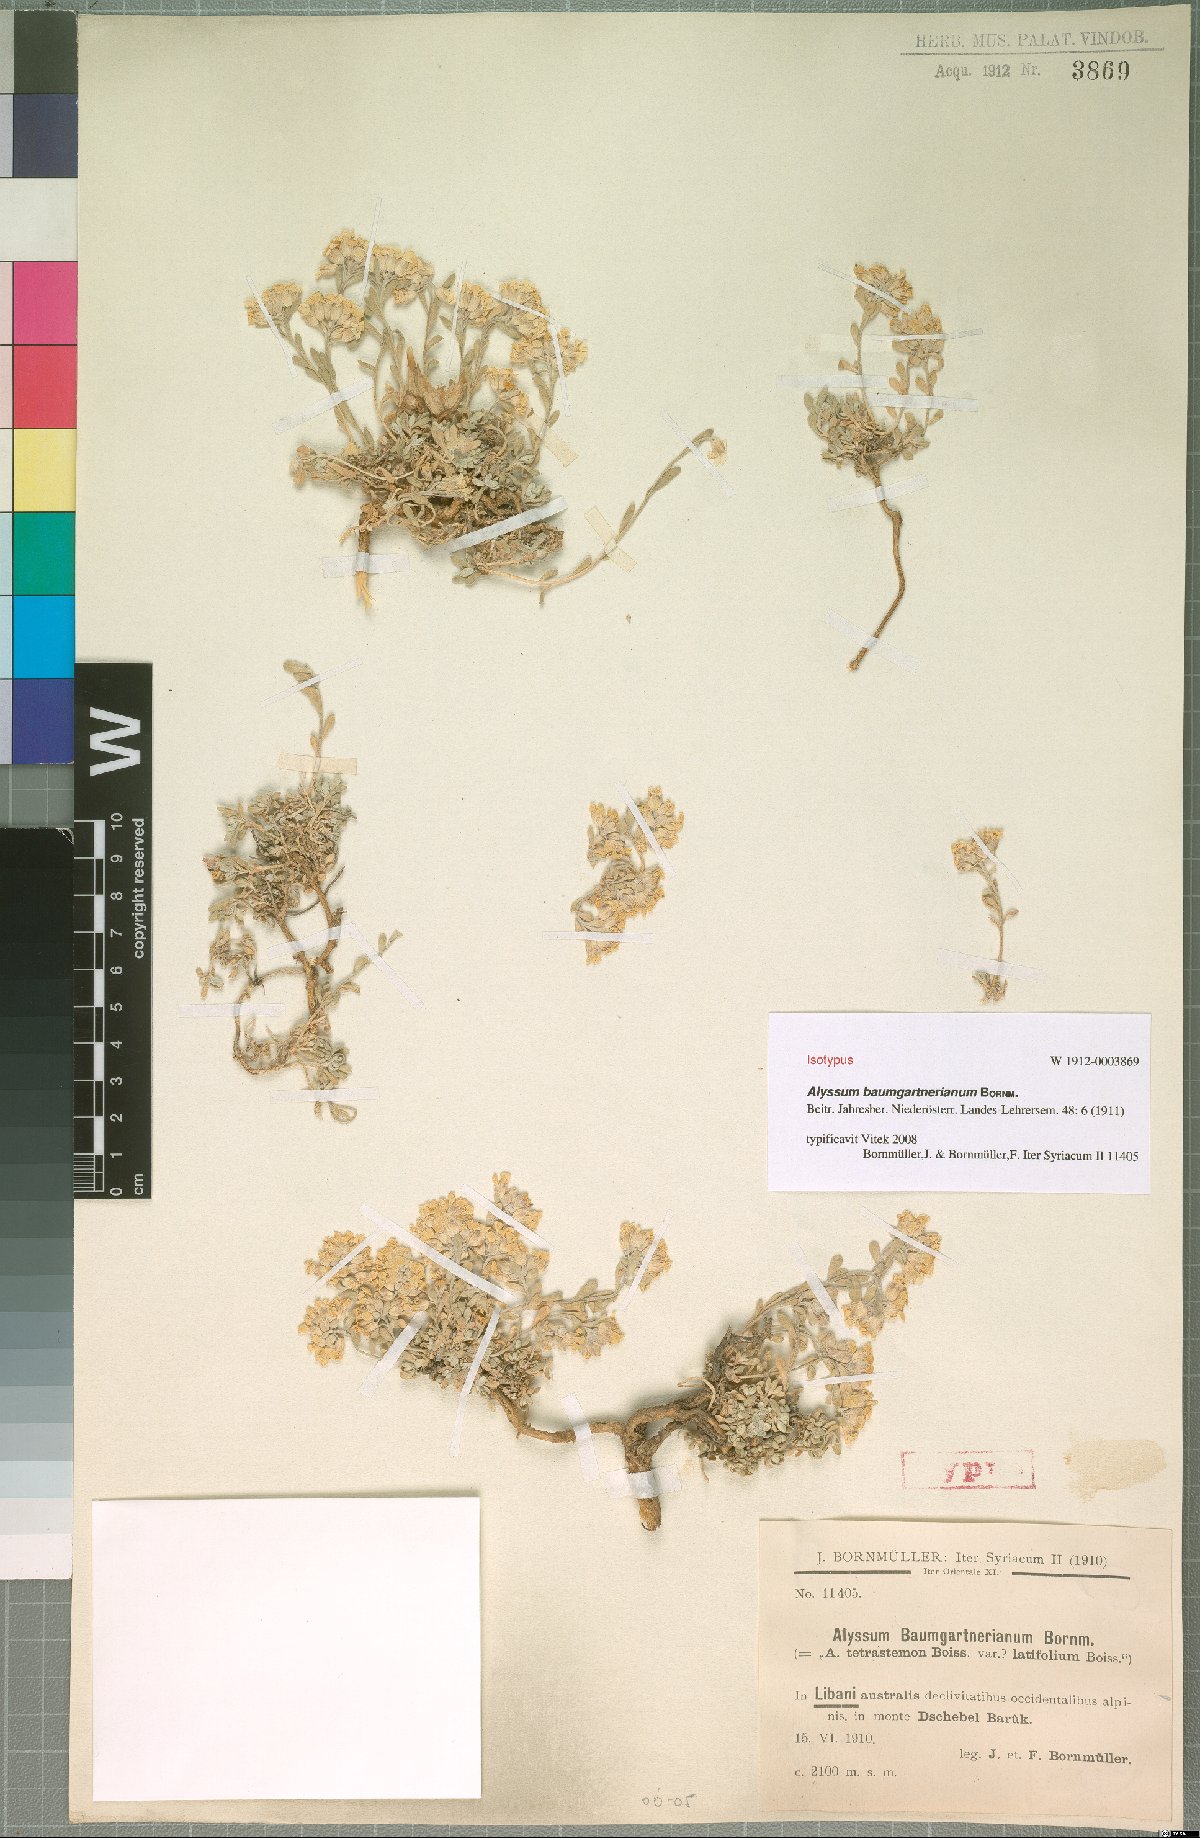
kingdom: Plantae
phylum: Tracheophyta
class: Magnoliopsida
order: Brassicales
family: Brassicaceae
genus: Alyssum
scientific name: Alyssum baumgartnerianum
